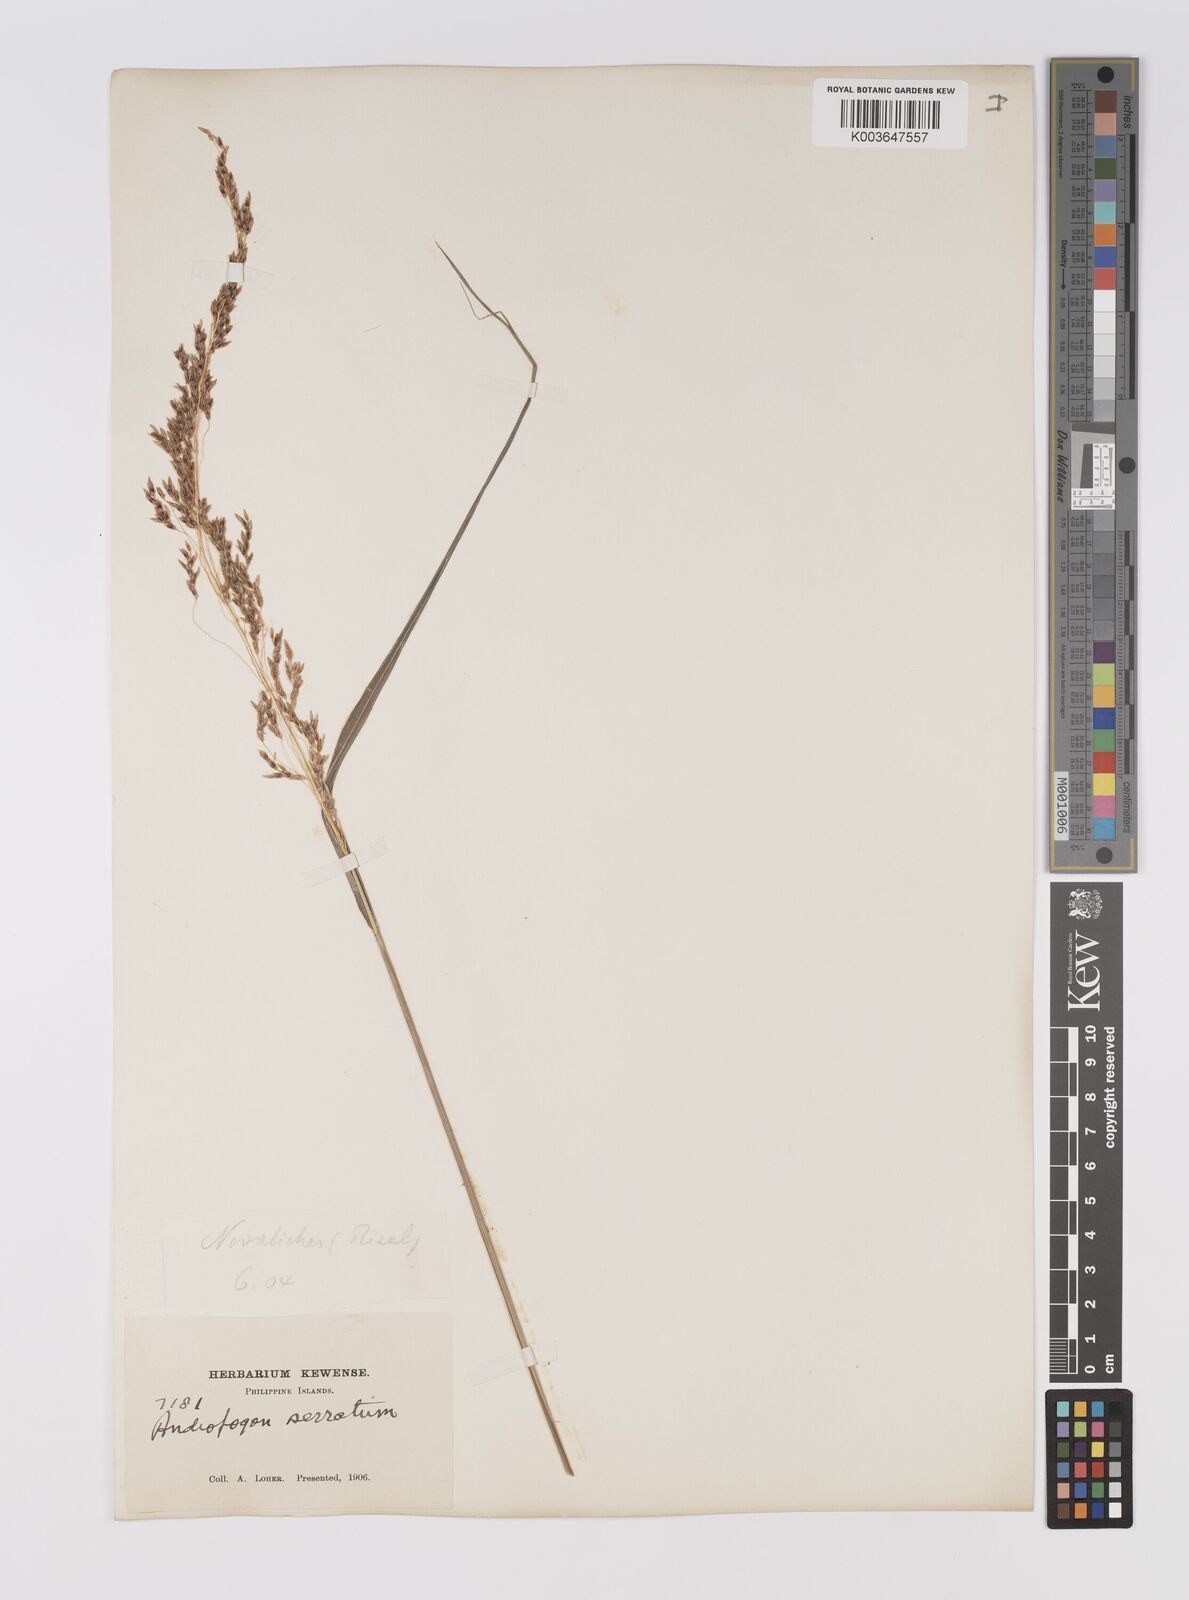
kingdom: Plantae
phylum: Tracheophyta
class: Liliopsida
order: Poales
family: Poaceae
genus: Sorghum
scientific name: Sorghum nitidum
